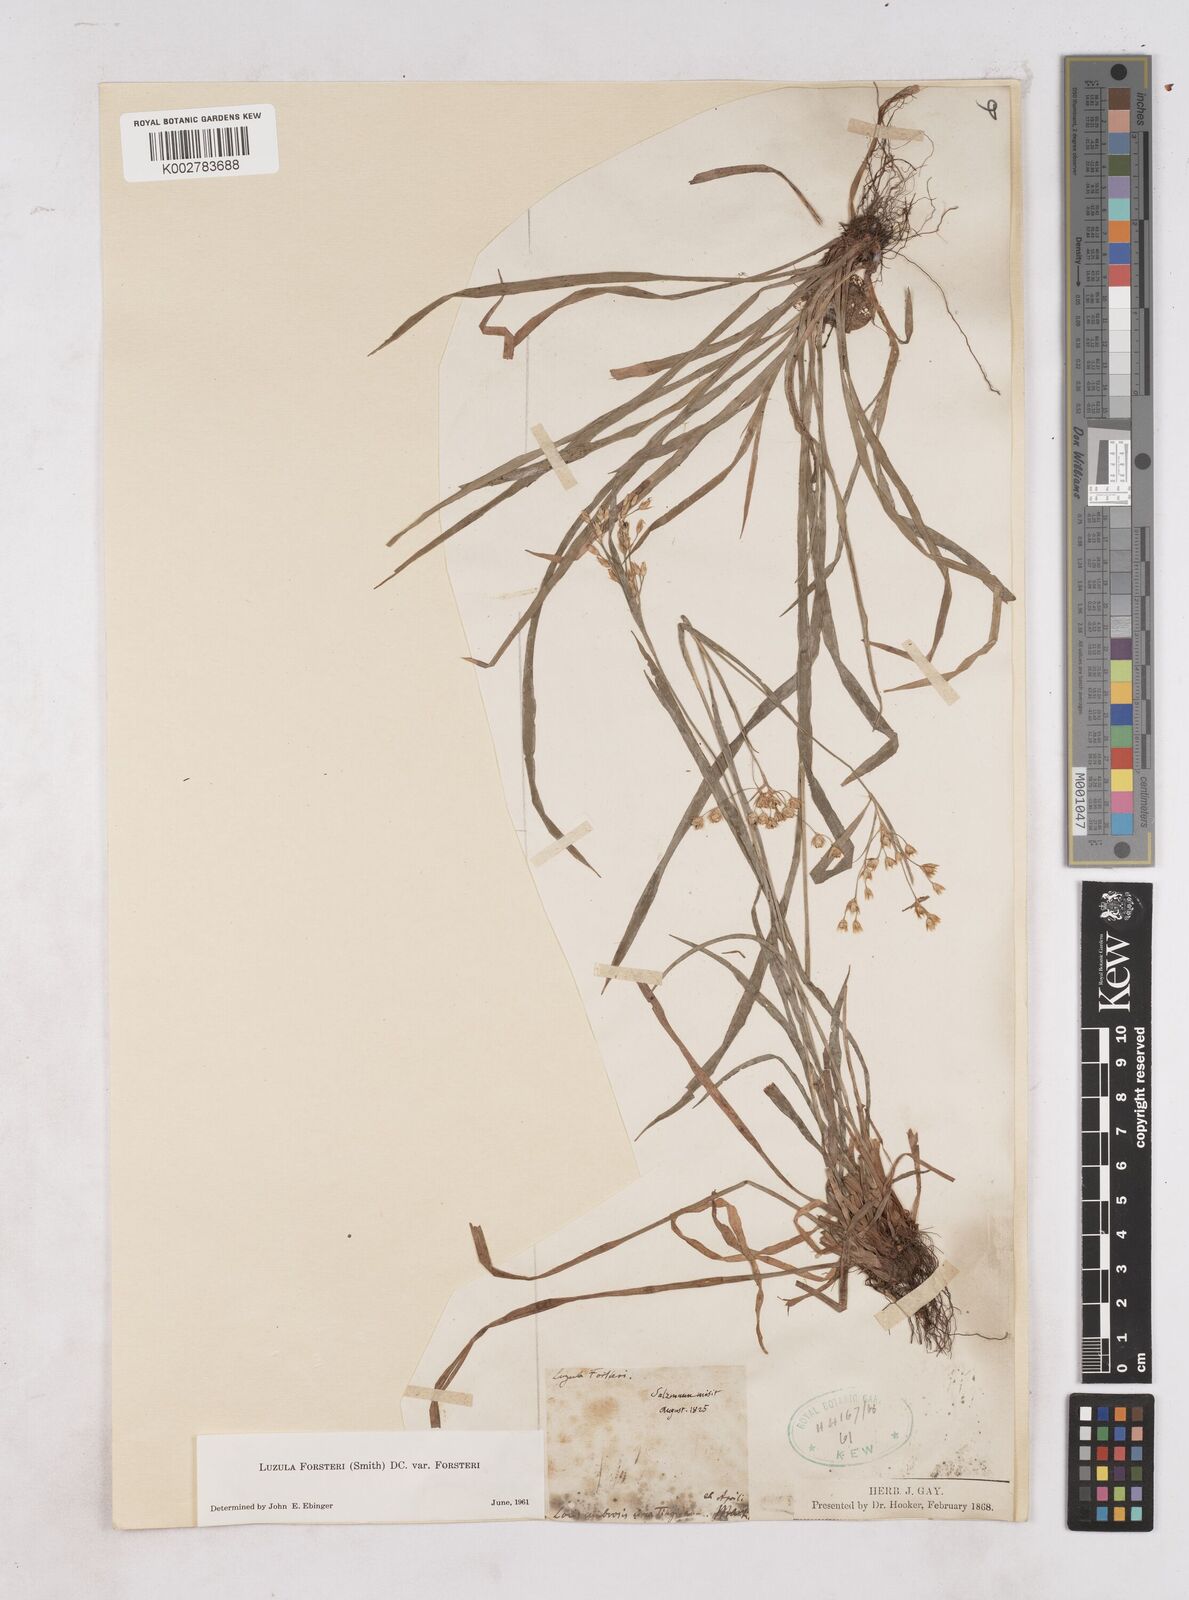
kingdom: Plantae
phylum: Tracheophyta
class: Liliopsida
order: Poales
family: Juncaceae
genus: Luzula
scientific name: Luzula forsteri
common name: Southern wood-rush
